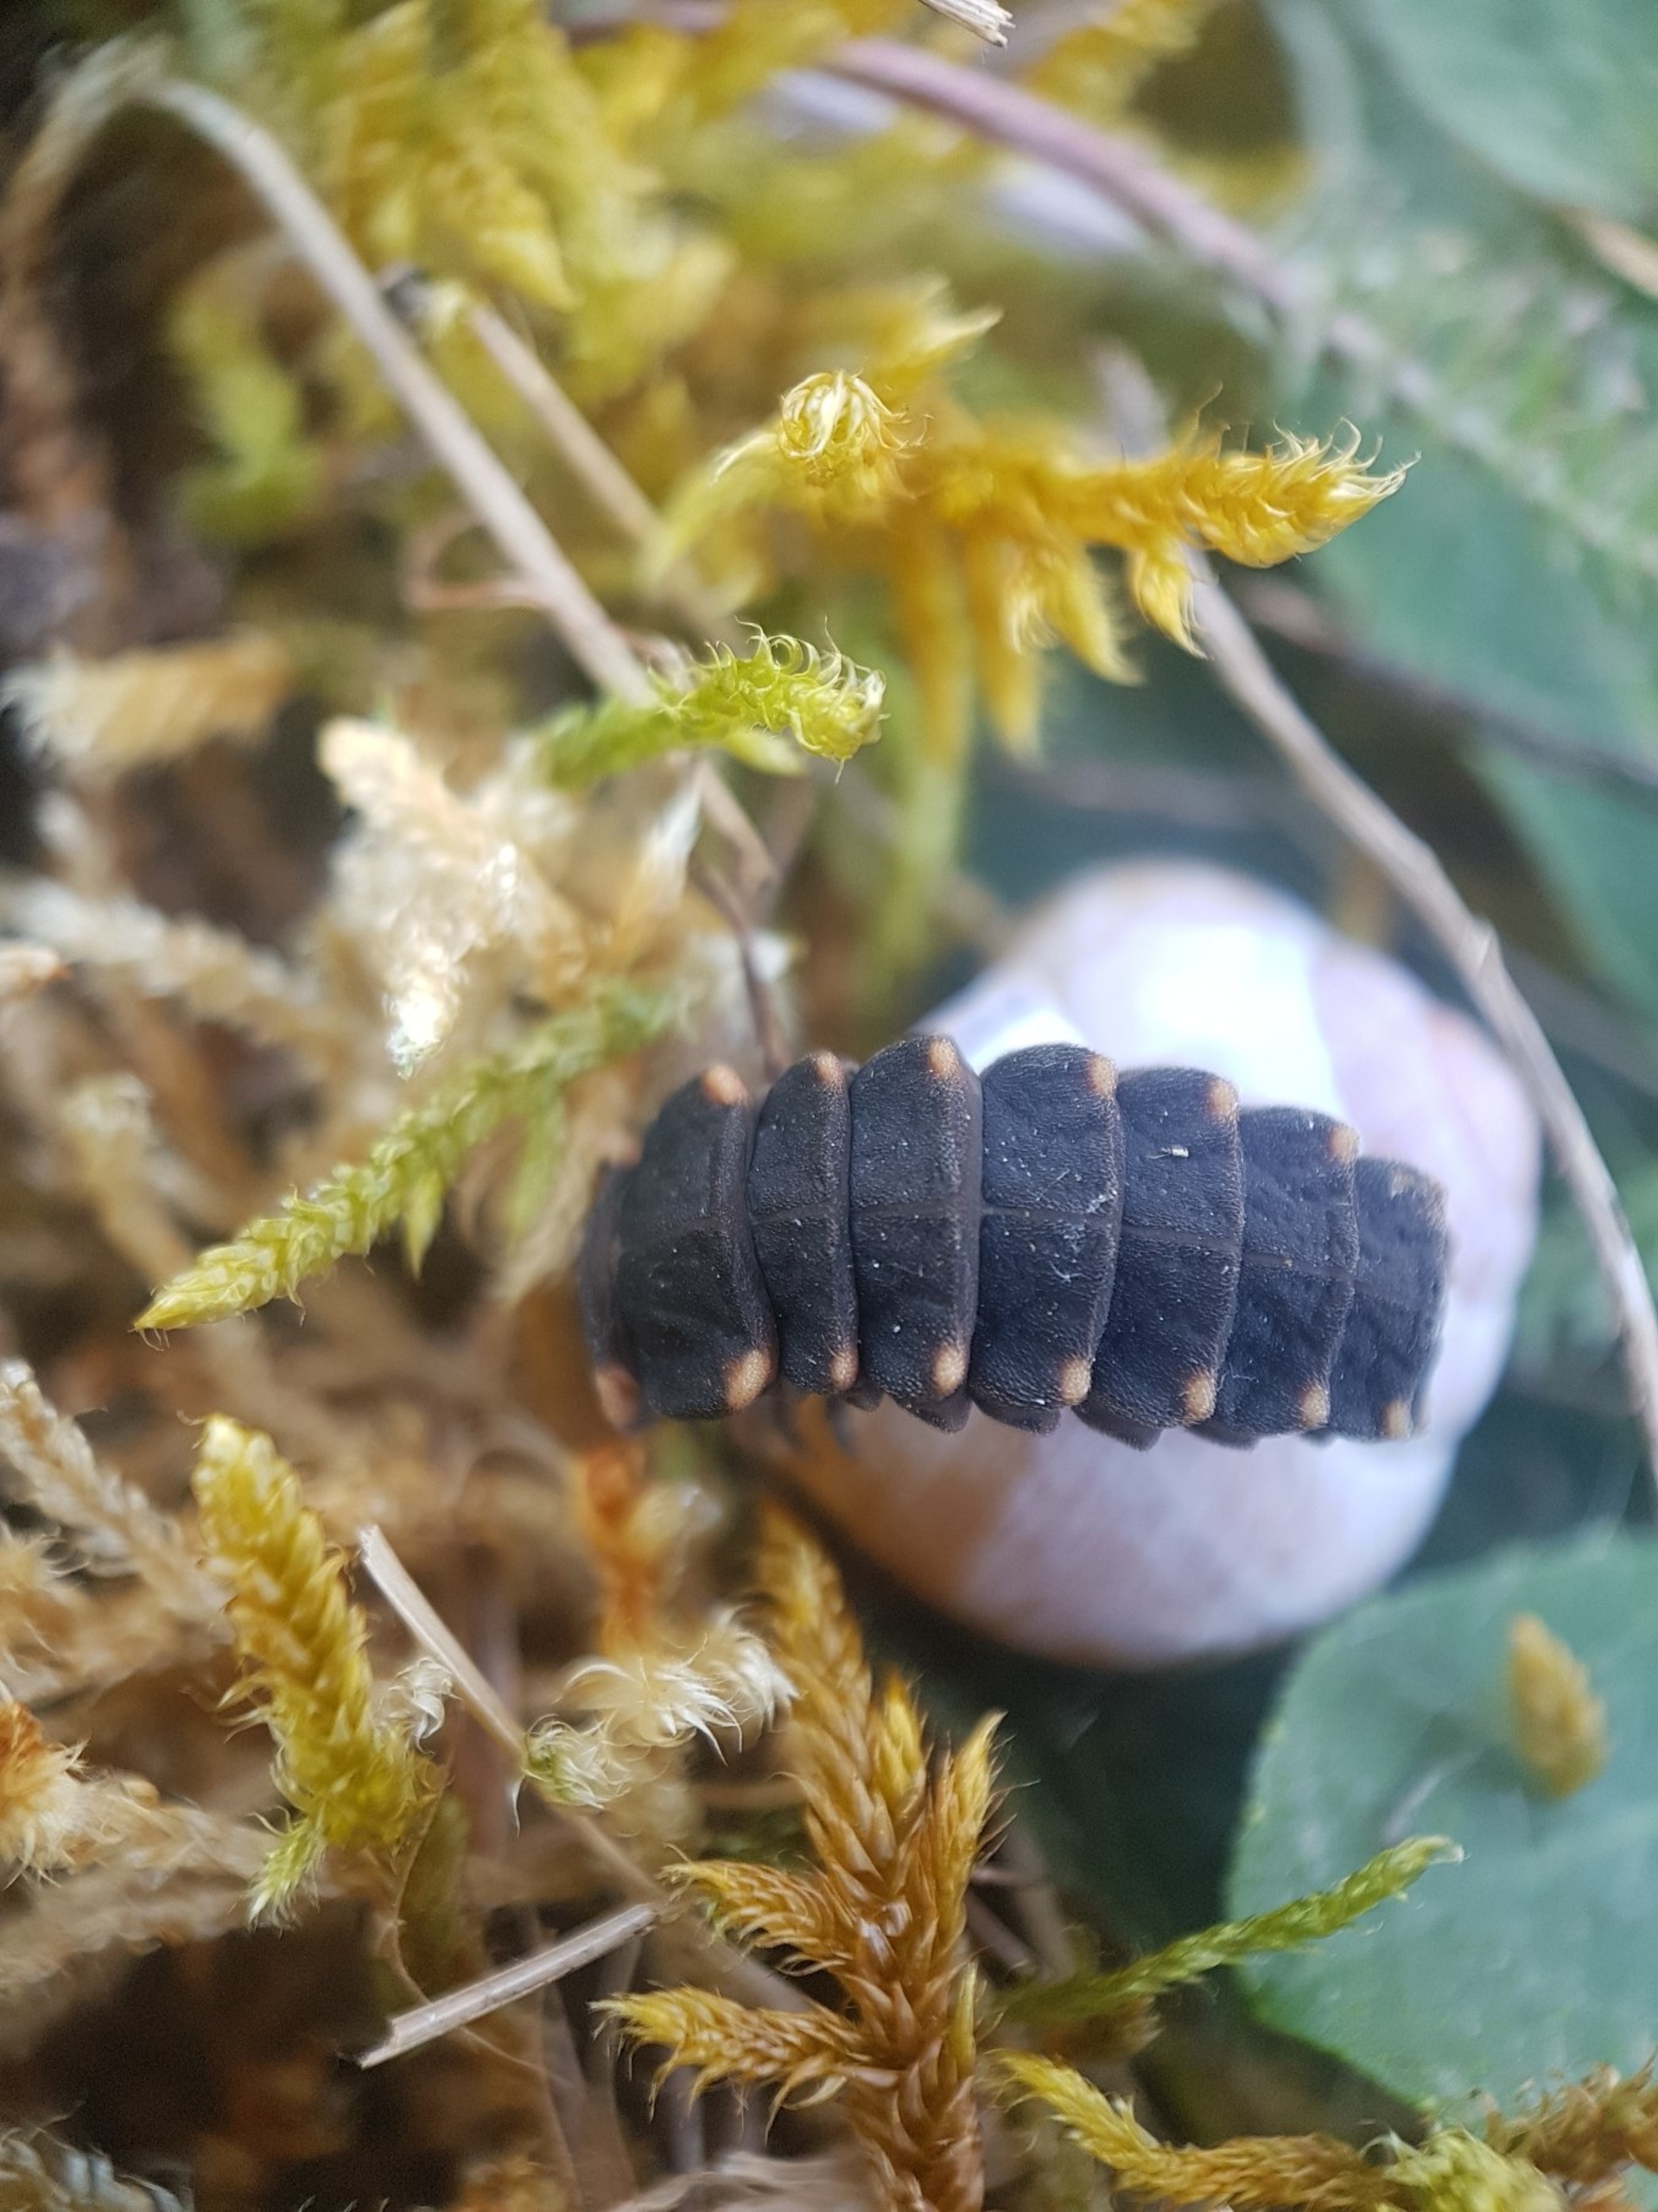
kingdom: Animalia
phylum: Arthropoda
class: Insecta
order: Coleoptera
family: Lampyridae
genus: Lampyris
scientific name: Lampyris noctiluca
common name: Sankthansorm
